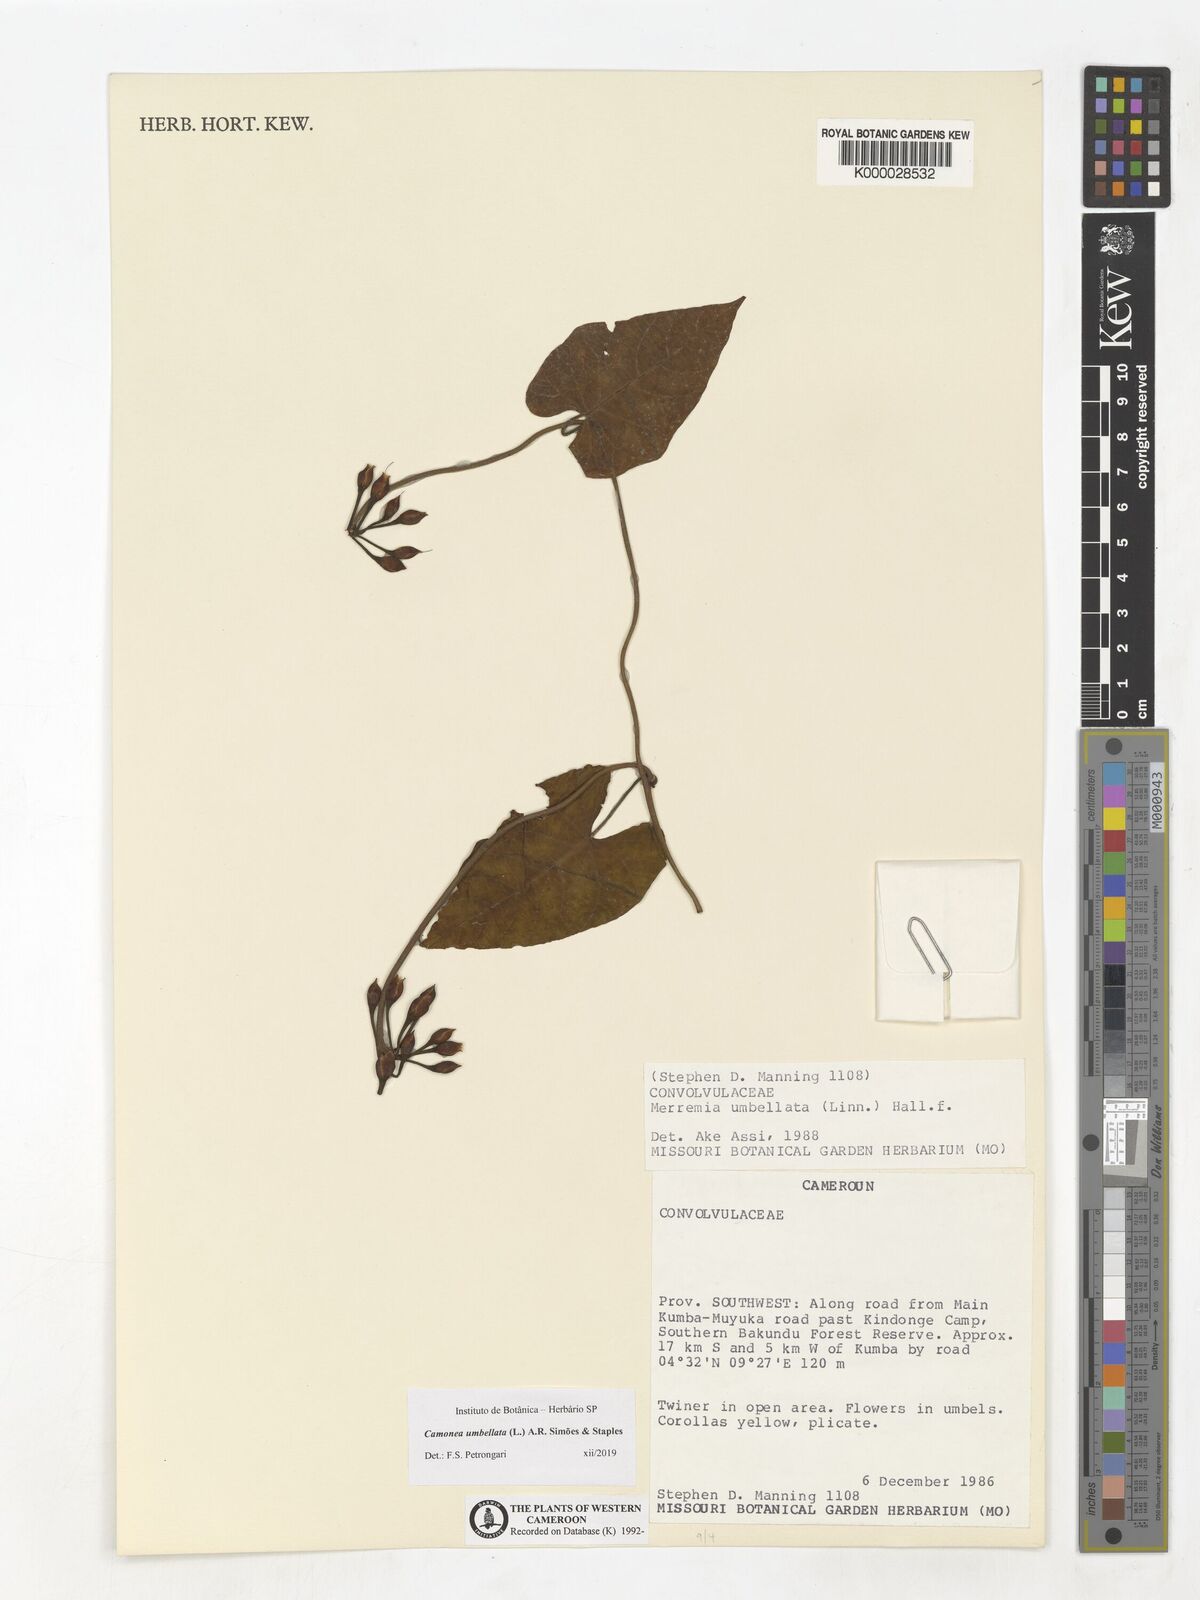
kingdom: Plantae
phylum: Tracheophyta
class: Magnoliopsida
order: Solanales
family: Convolvulaceae
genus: Camonea
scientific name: Camonea umbellata
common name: Hogvine
